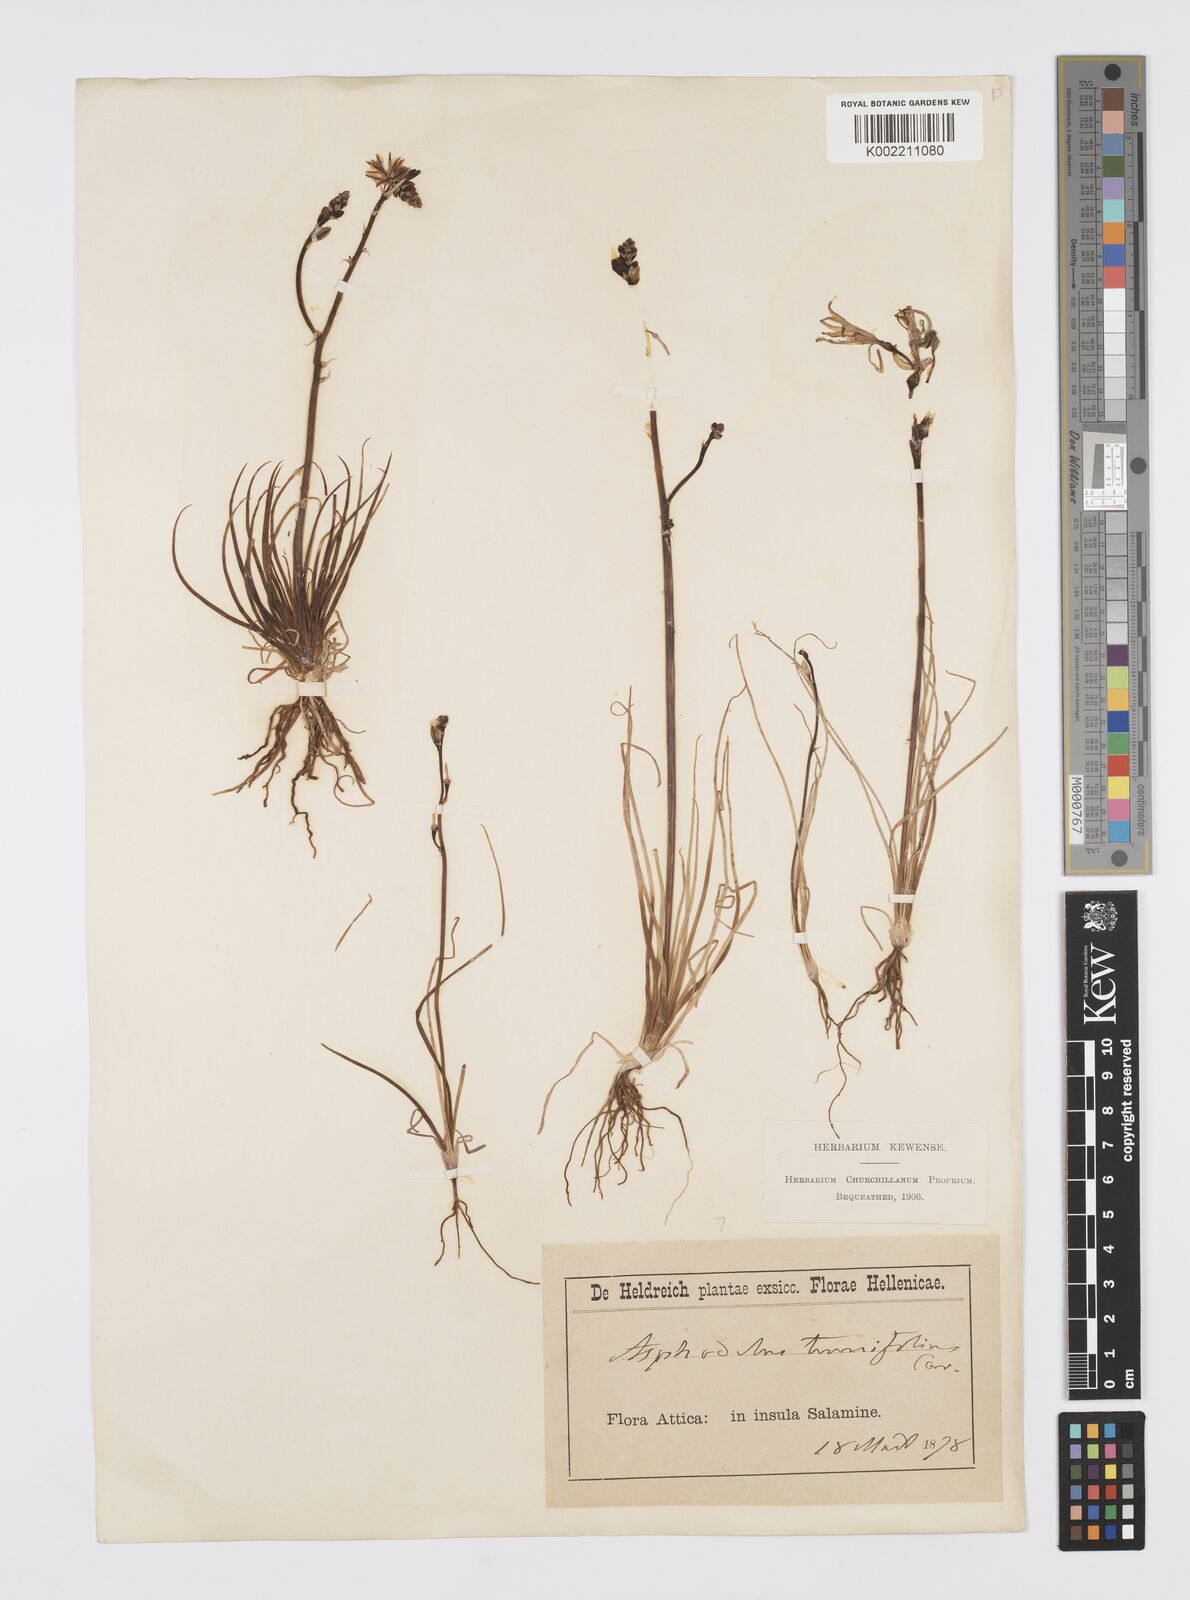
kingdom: Plantae
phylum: Tracheophyta
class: Liliopsida
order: Asparagales
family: Asphodelaceae
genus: Asphodelus
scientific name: Asphodelus tenuifolius
